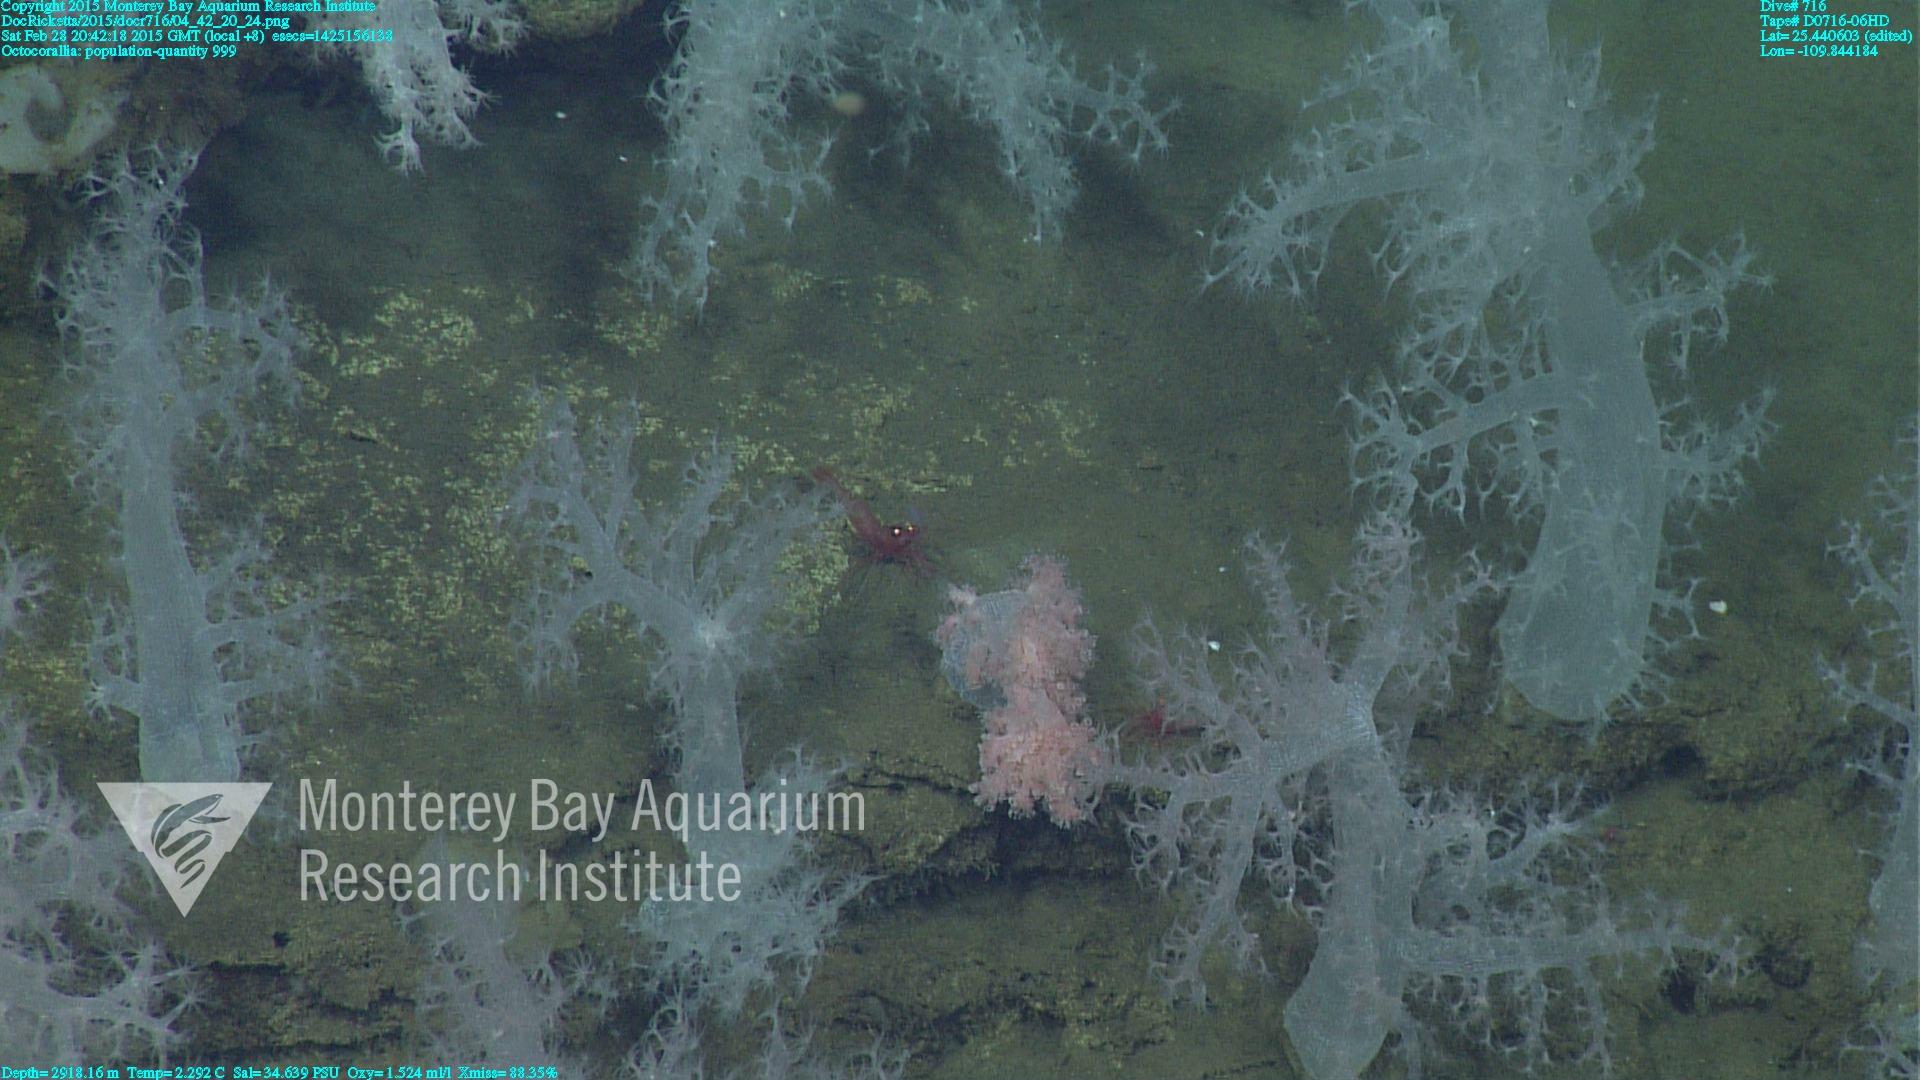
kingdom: Animalia
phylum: Cnidaria
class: Anthozoa
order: Malacalcyonacea
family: Alcyoniidae
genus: Gersemia
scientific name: Gersemia juliepackardae
